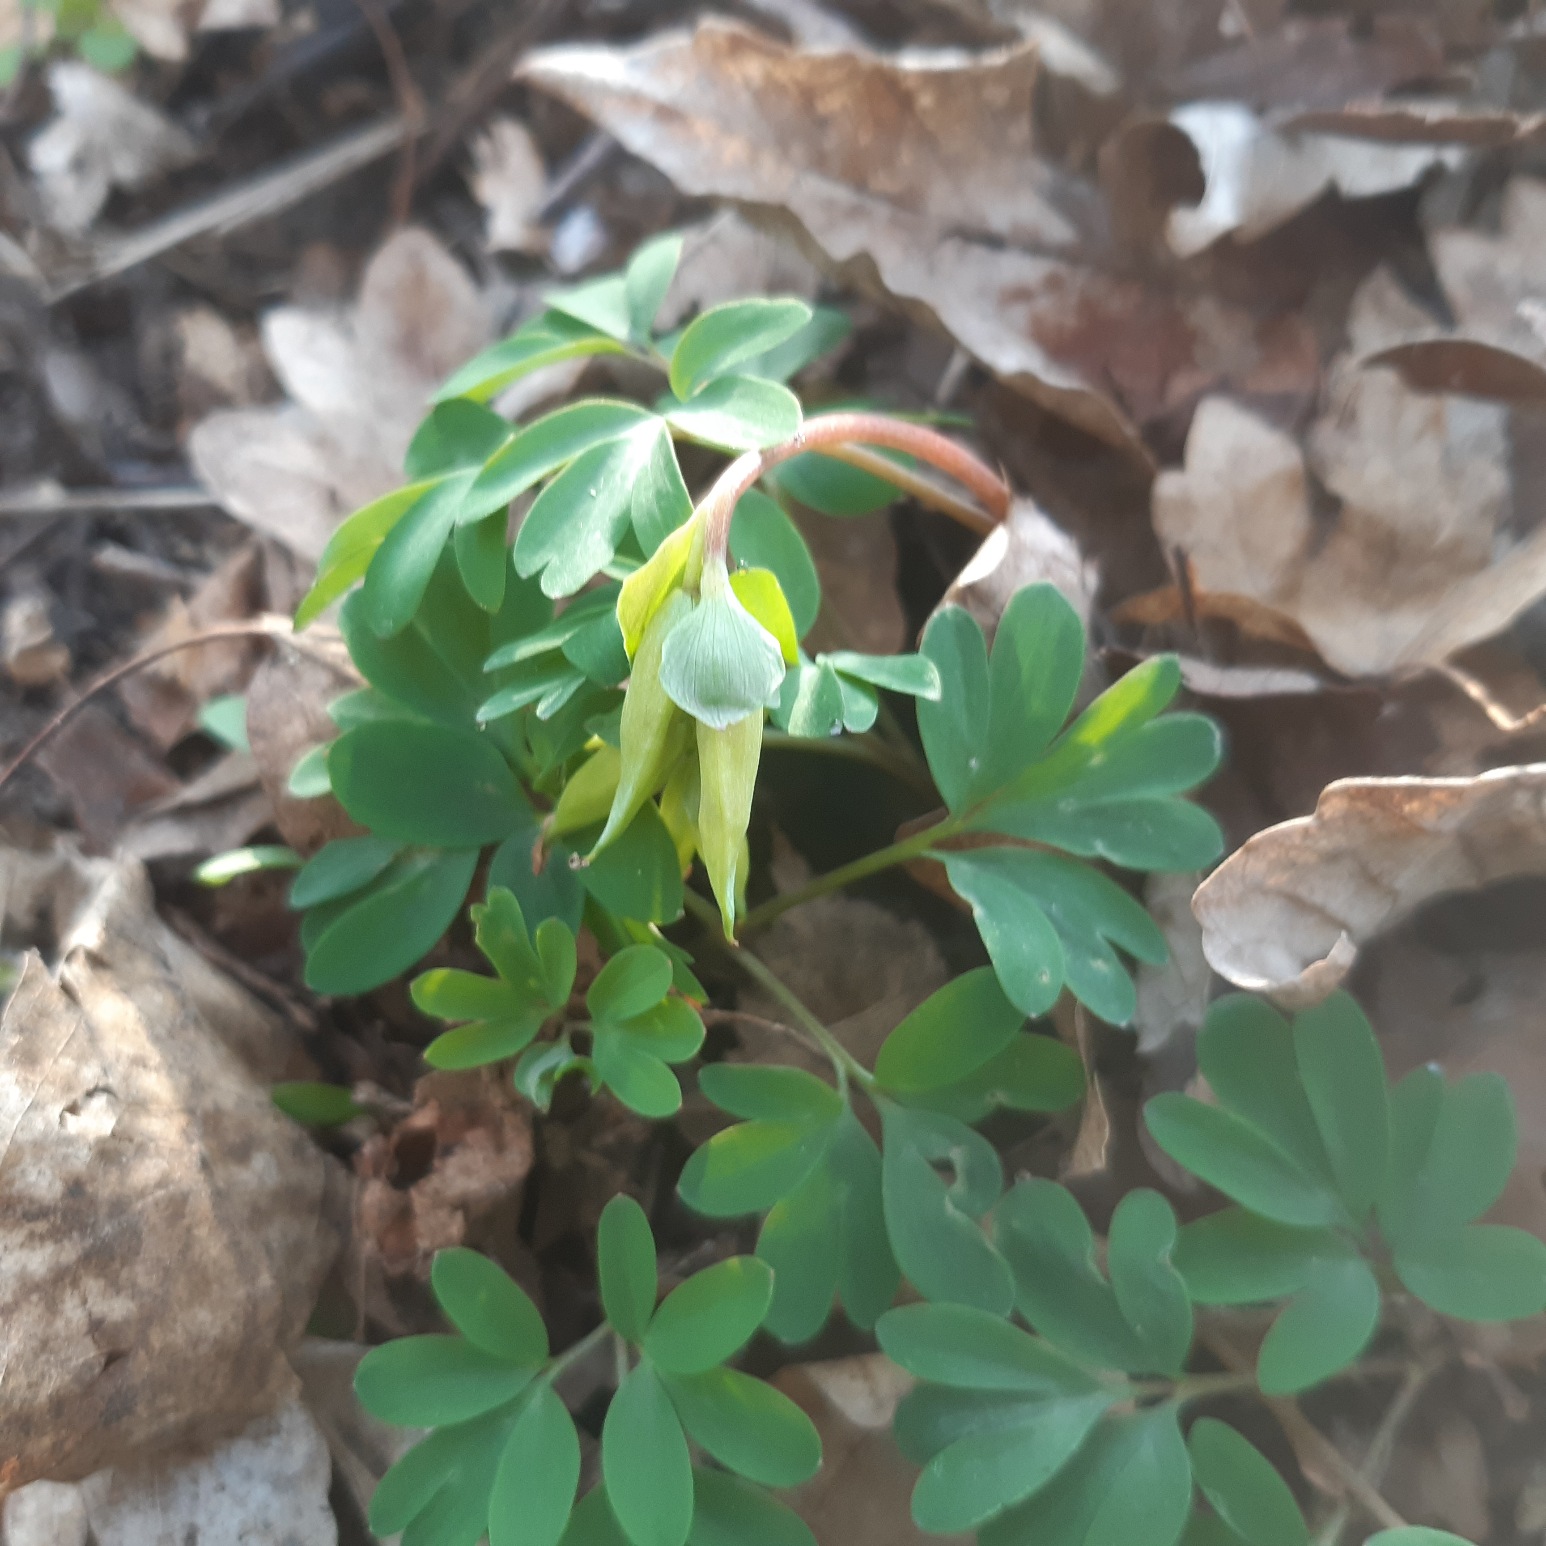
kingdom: Plantae
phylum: Tracheophyta
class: Magnoliopsida
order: Ranunculales
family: Papaveraceae
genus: Corydalis
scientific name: Corydalis intermedia
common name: Liden lærkespore
